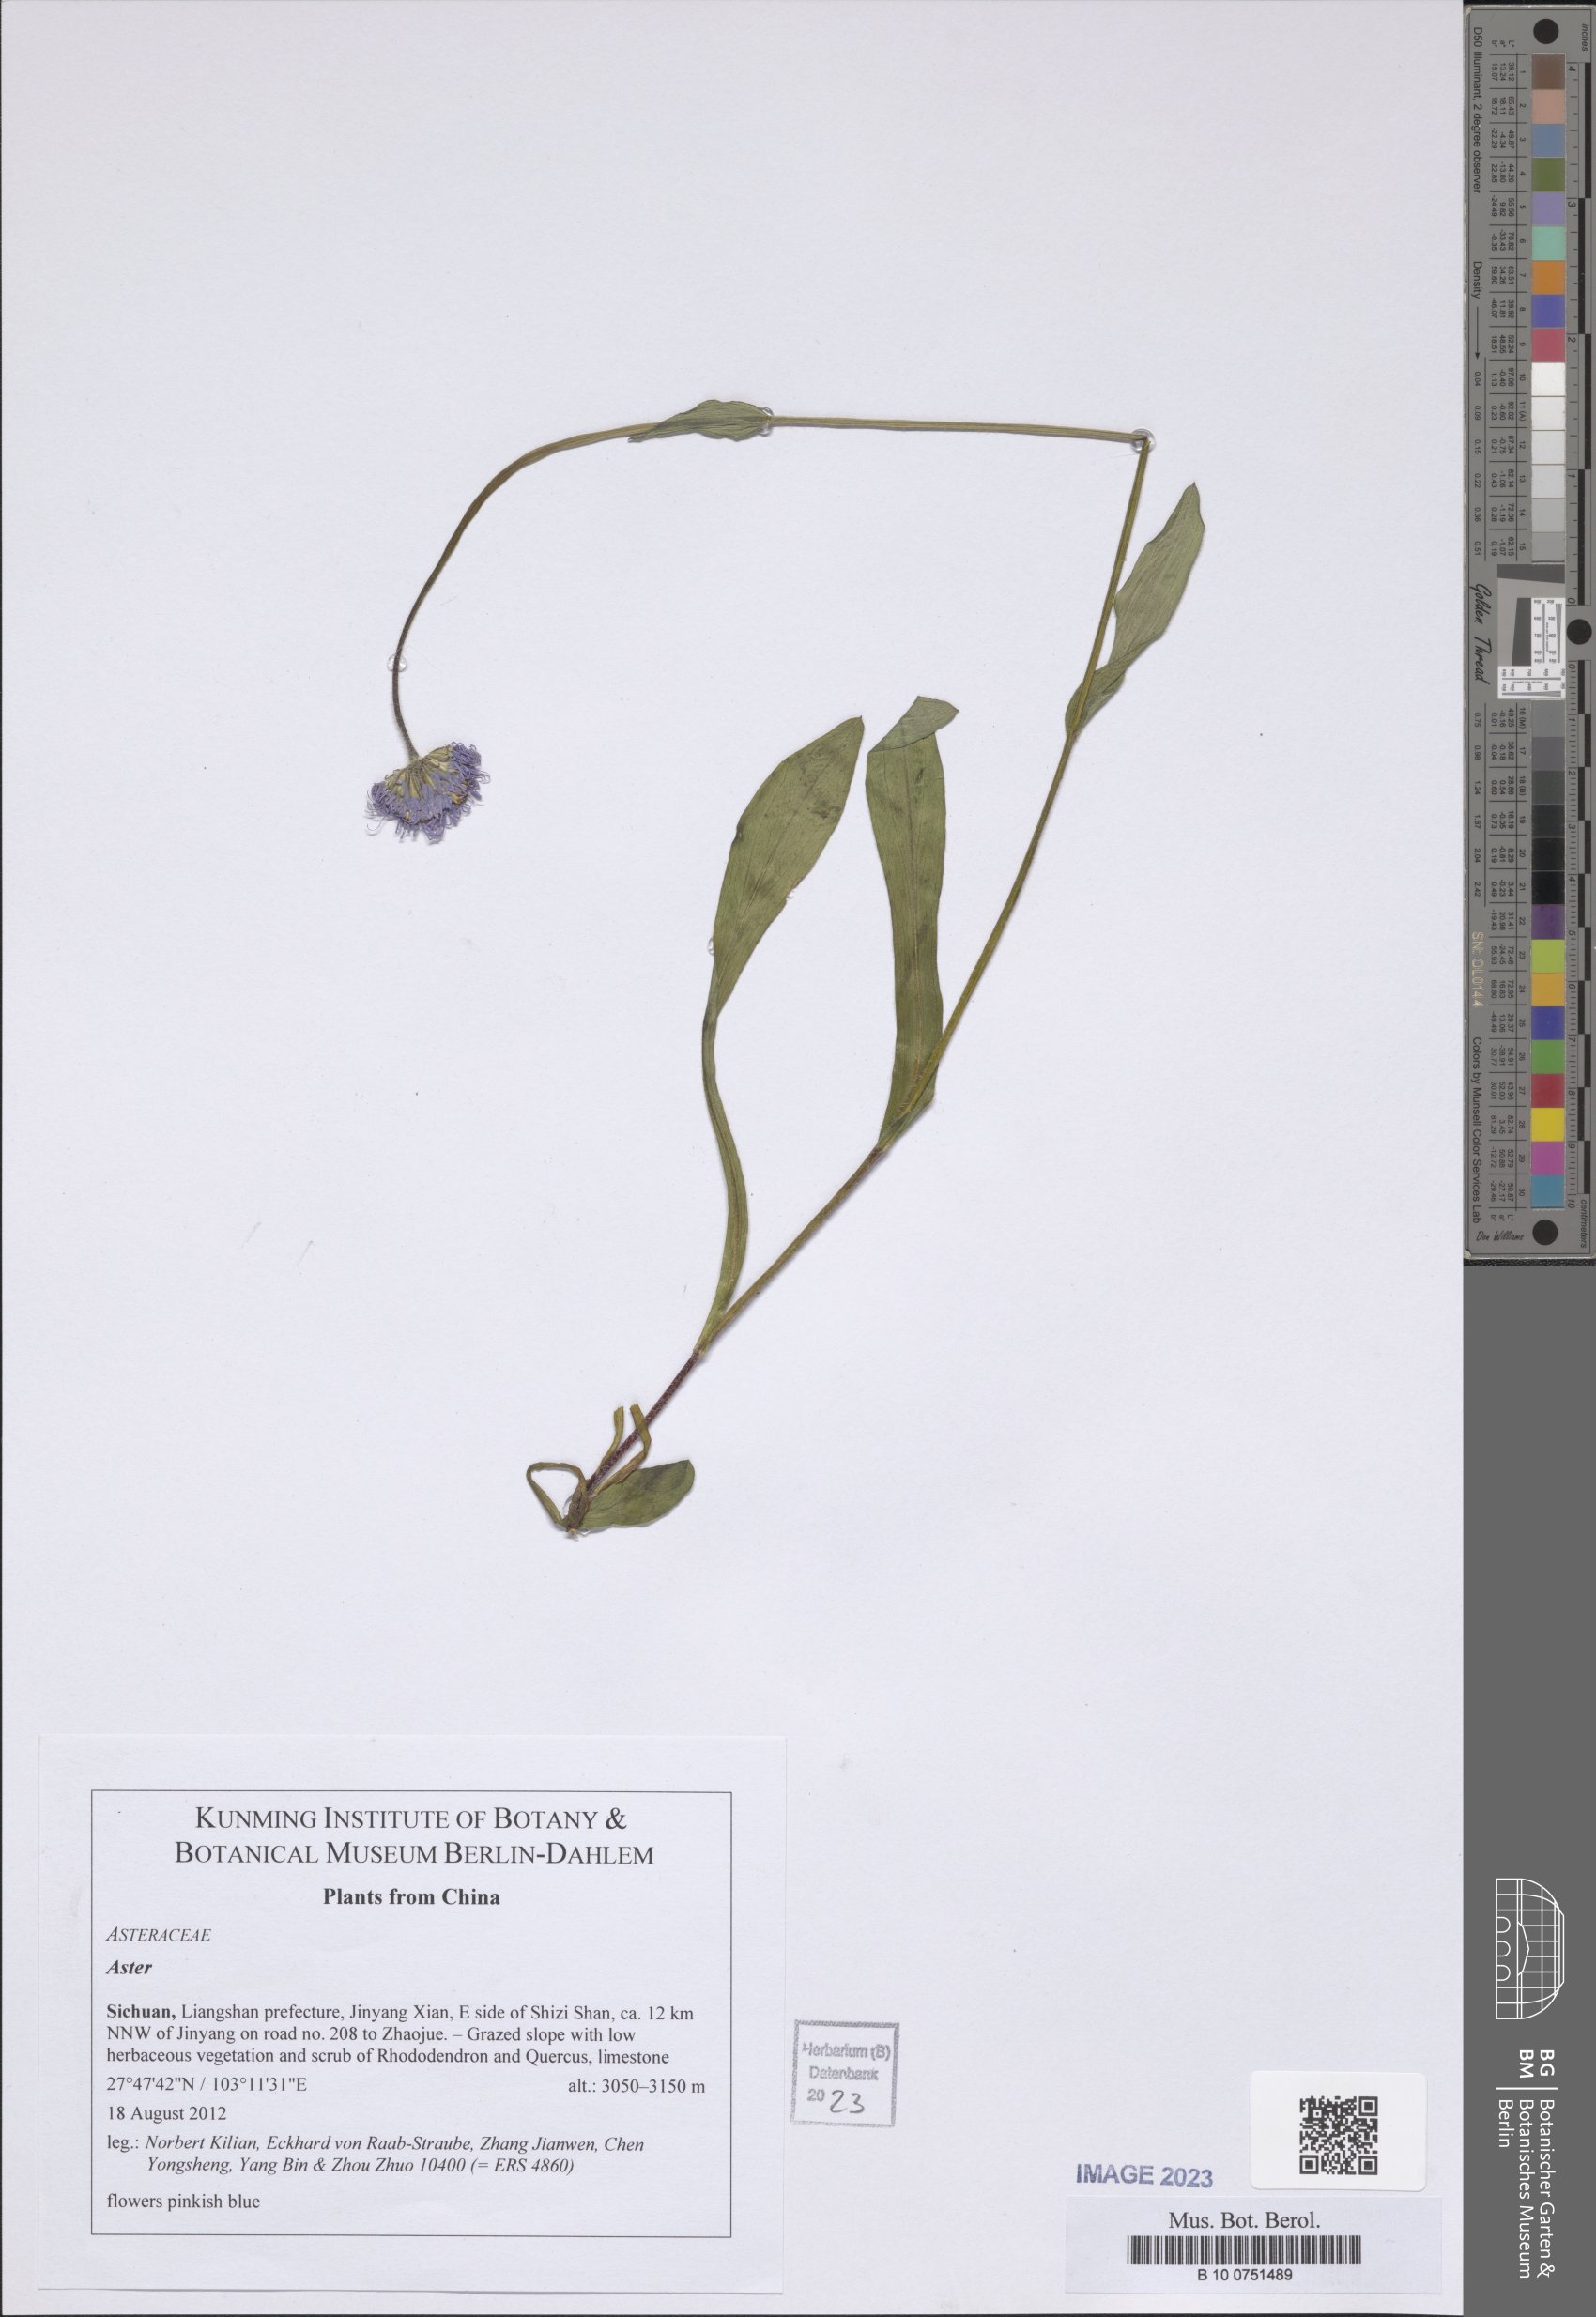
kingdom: Plantae
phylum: Tracheophyta
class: Magnoliopsida
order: Asterales
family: Asteraceae
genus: Aster
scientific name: Aster
